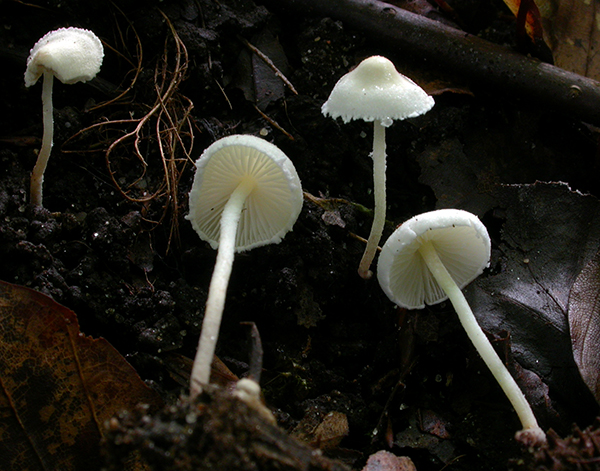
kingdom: Fungi
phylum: Basidiomycota
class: Agaricomycetes
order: Agaricales
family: Agaricaceae
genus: Cystolepiota
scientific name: Cystolepiota seminuda
